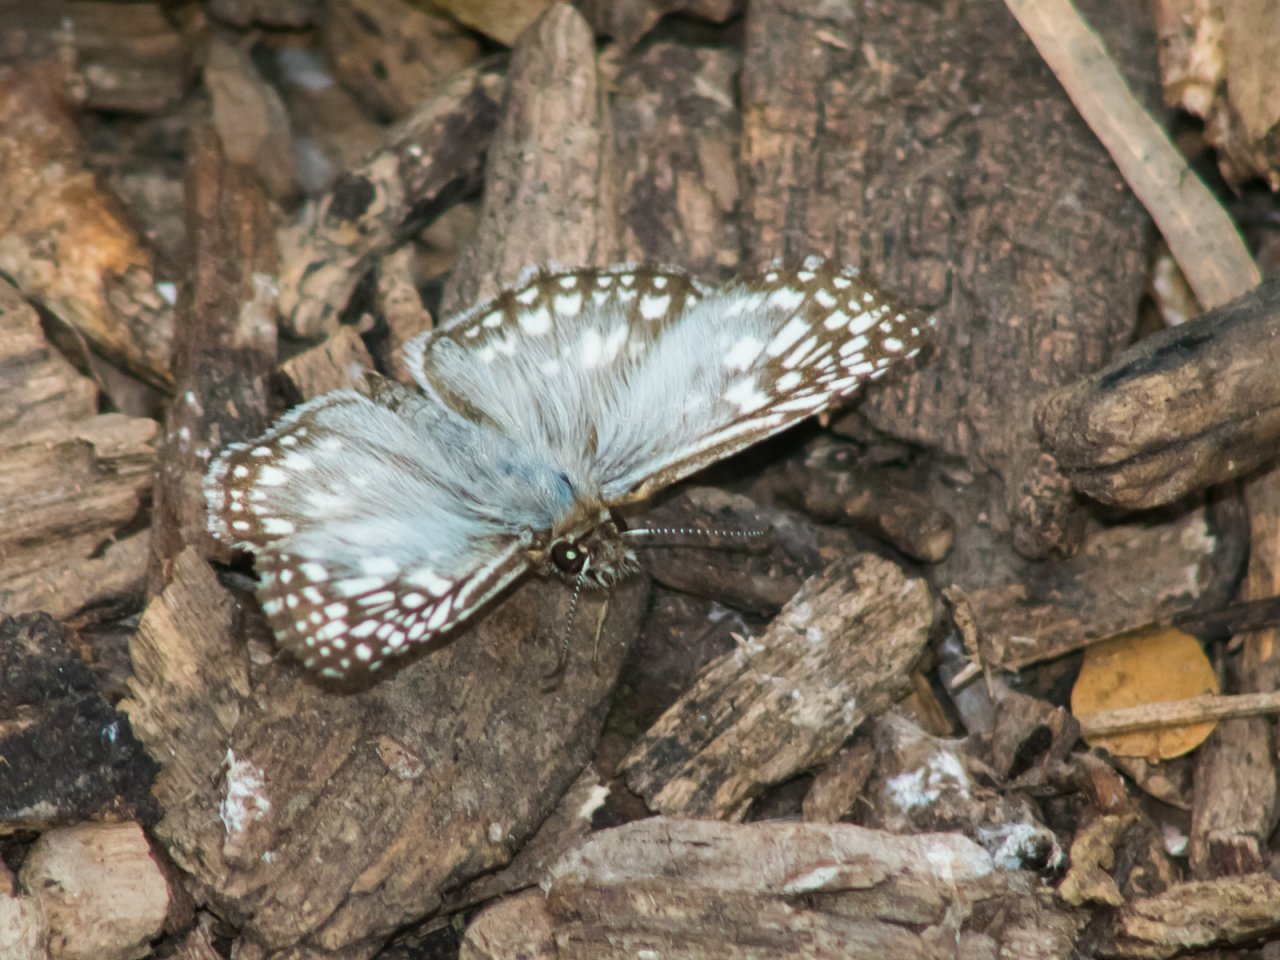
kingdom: Animalia
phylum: Arthropoda
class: Insecta
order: Lepidoptera
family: Hesperiidae
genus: Pyrgus
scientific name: Pyrgus oileus
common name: Tropical Checkered-Skipper
